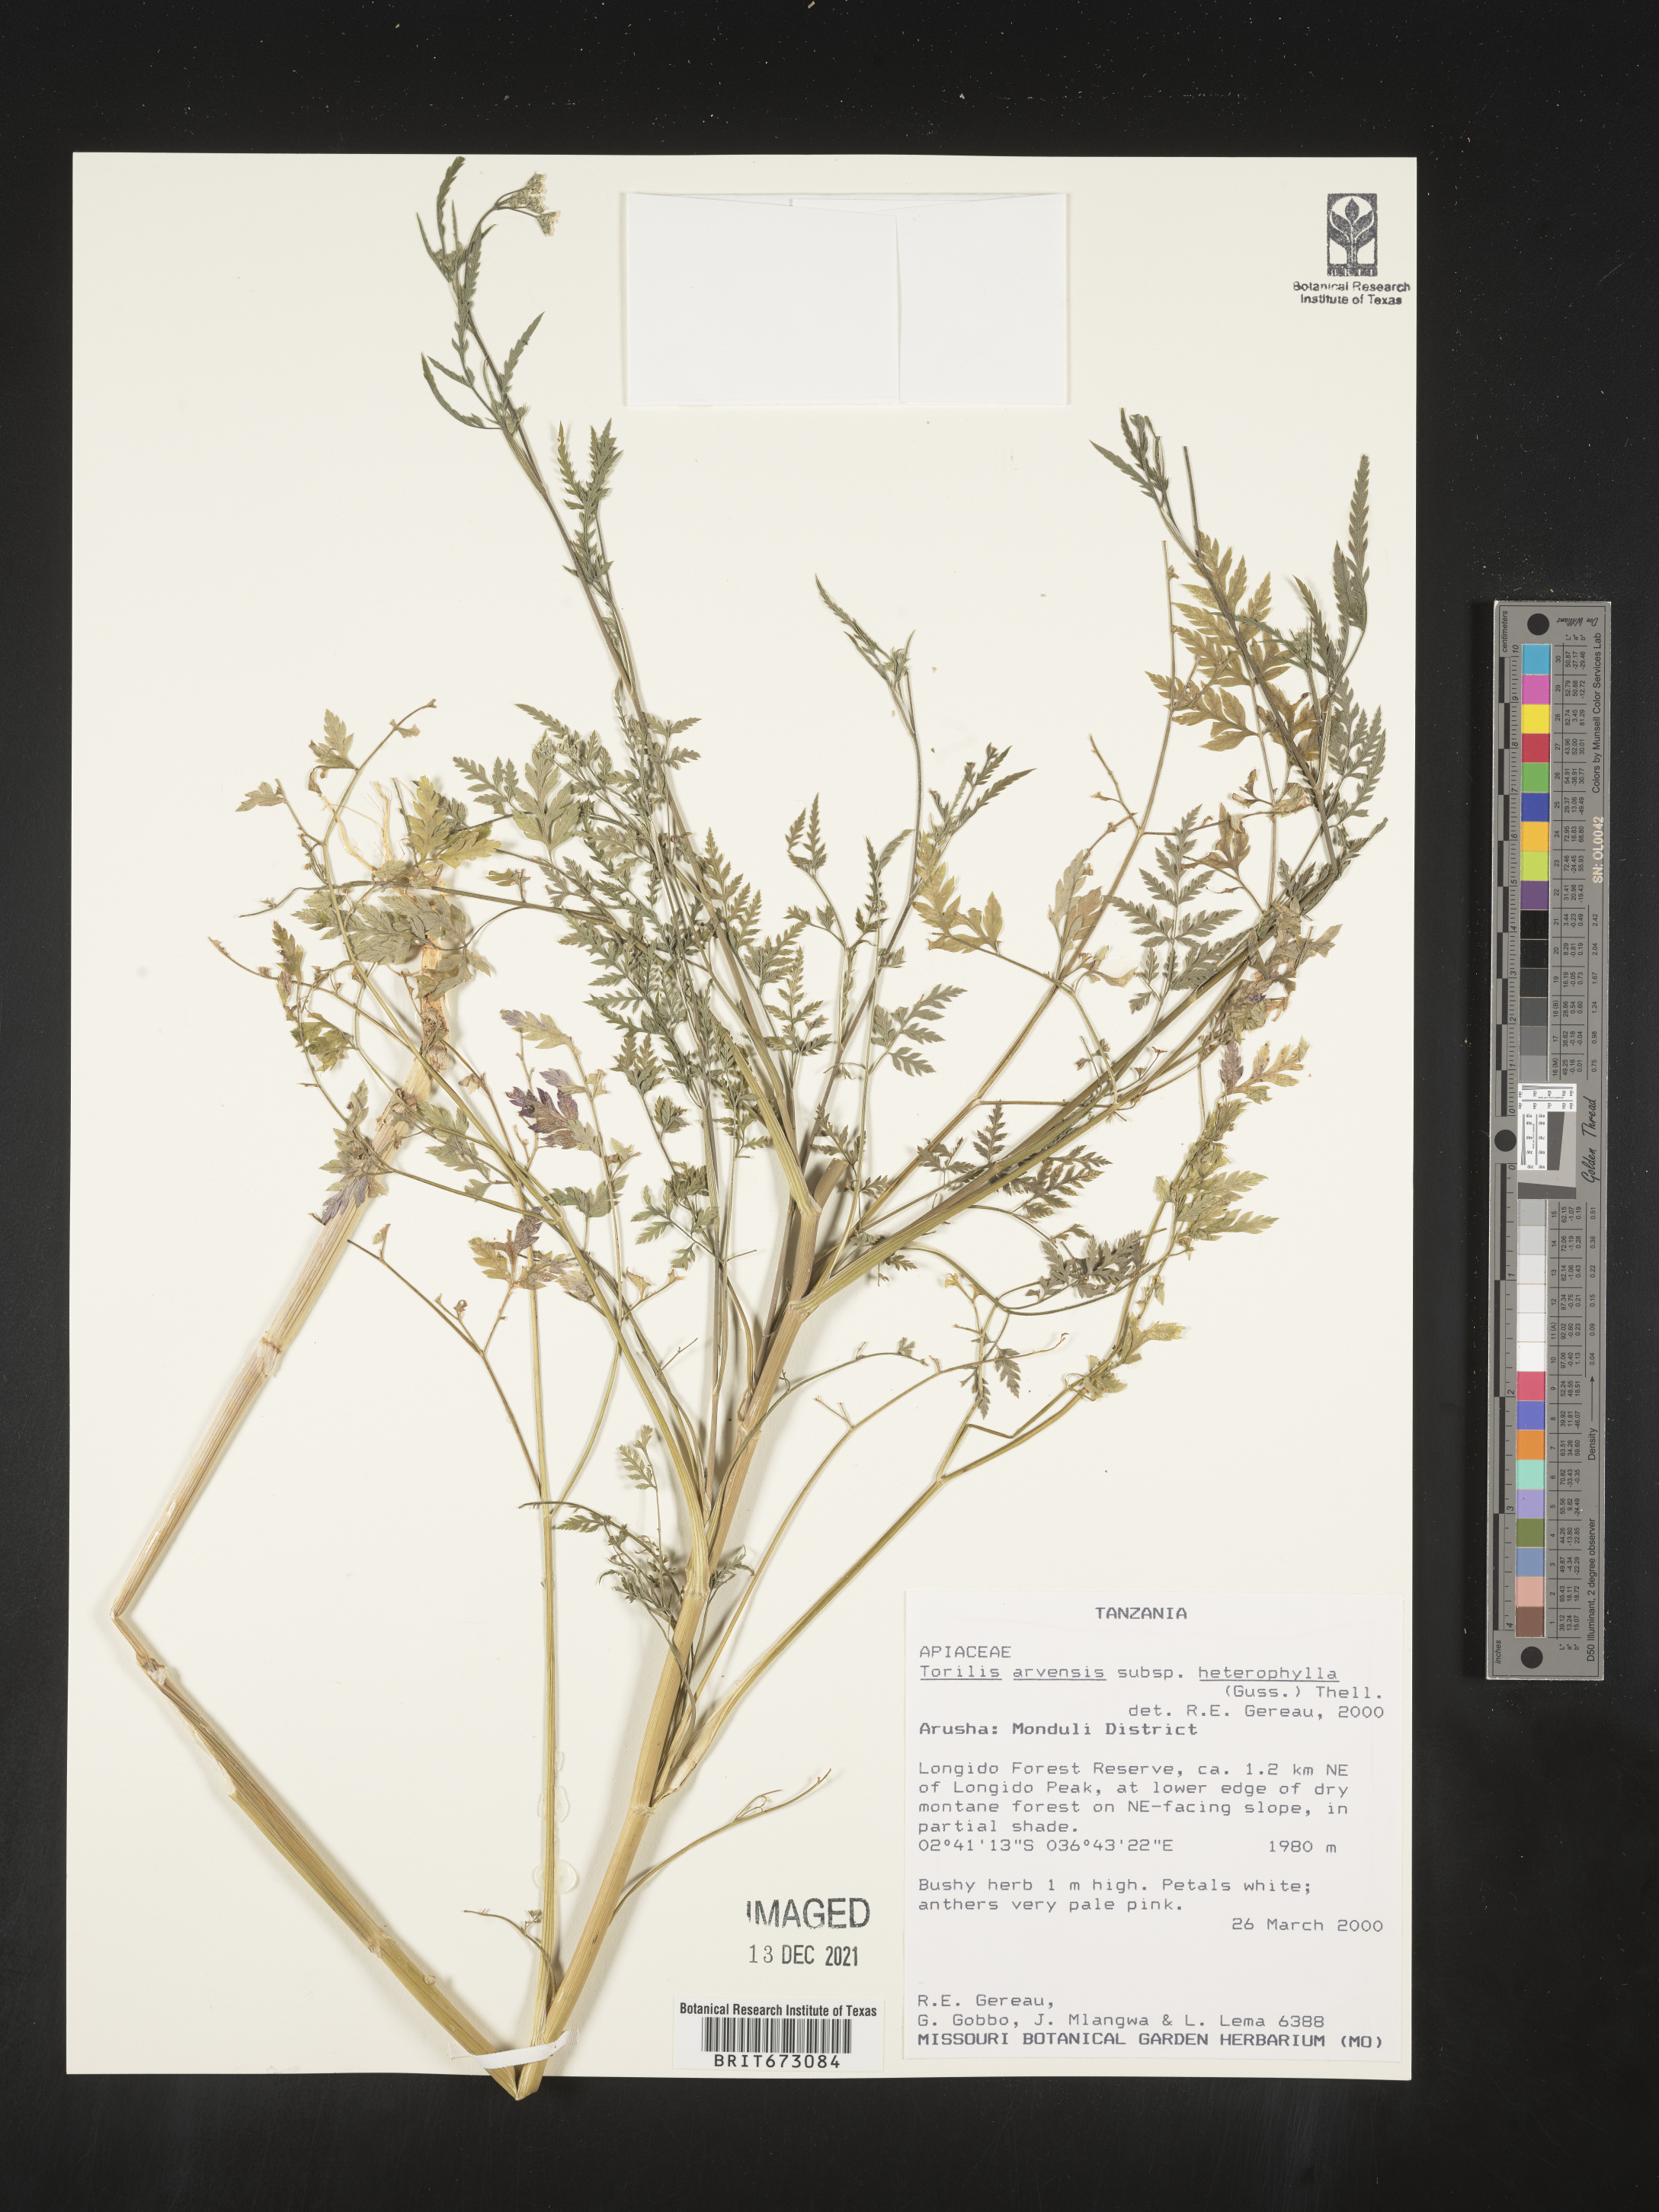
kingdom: Plantae
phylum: Tracheophyta
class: Magnoliopsida
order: Apiales
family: Apiaceae
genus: Torilis
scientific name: Torilis
